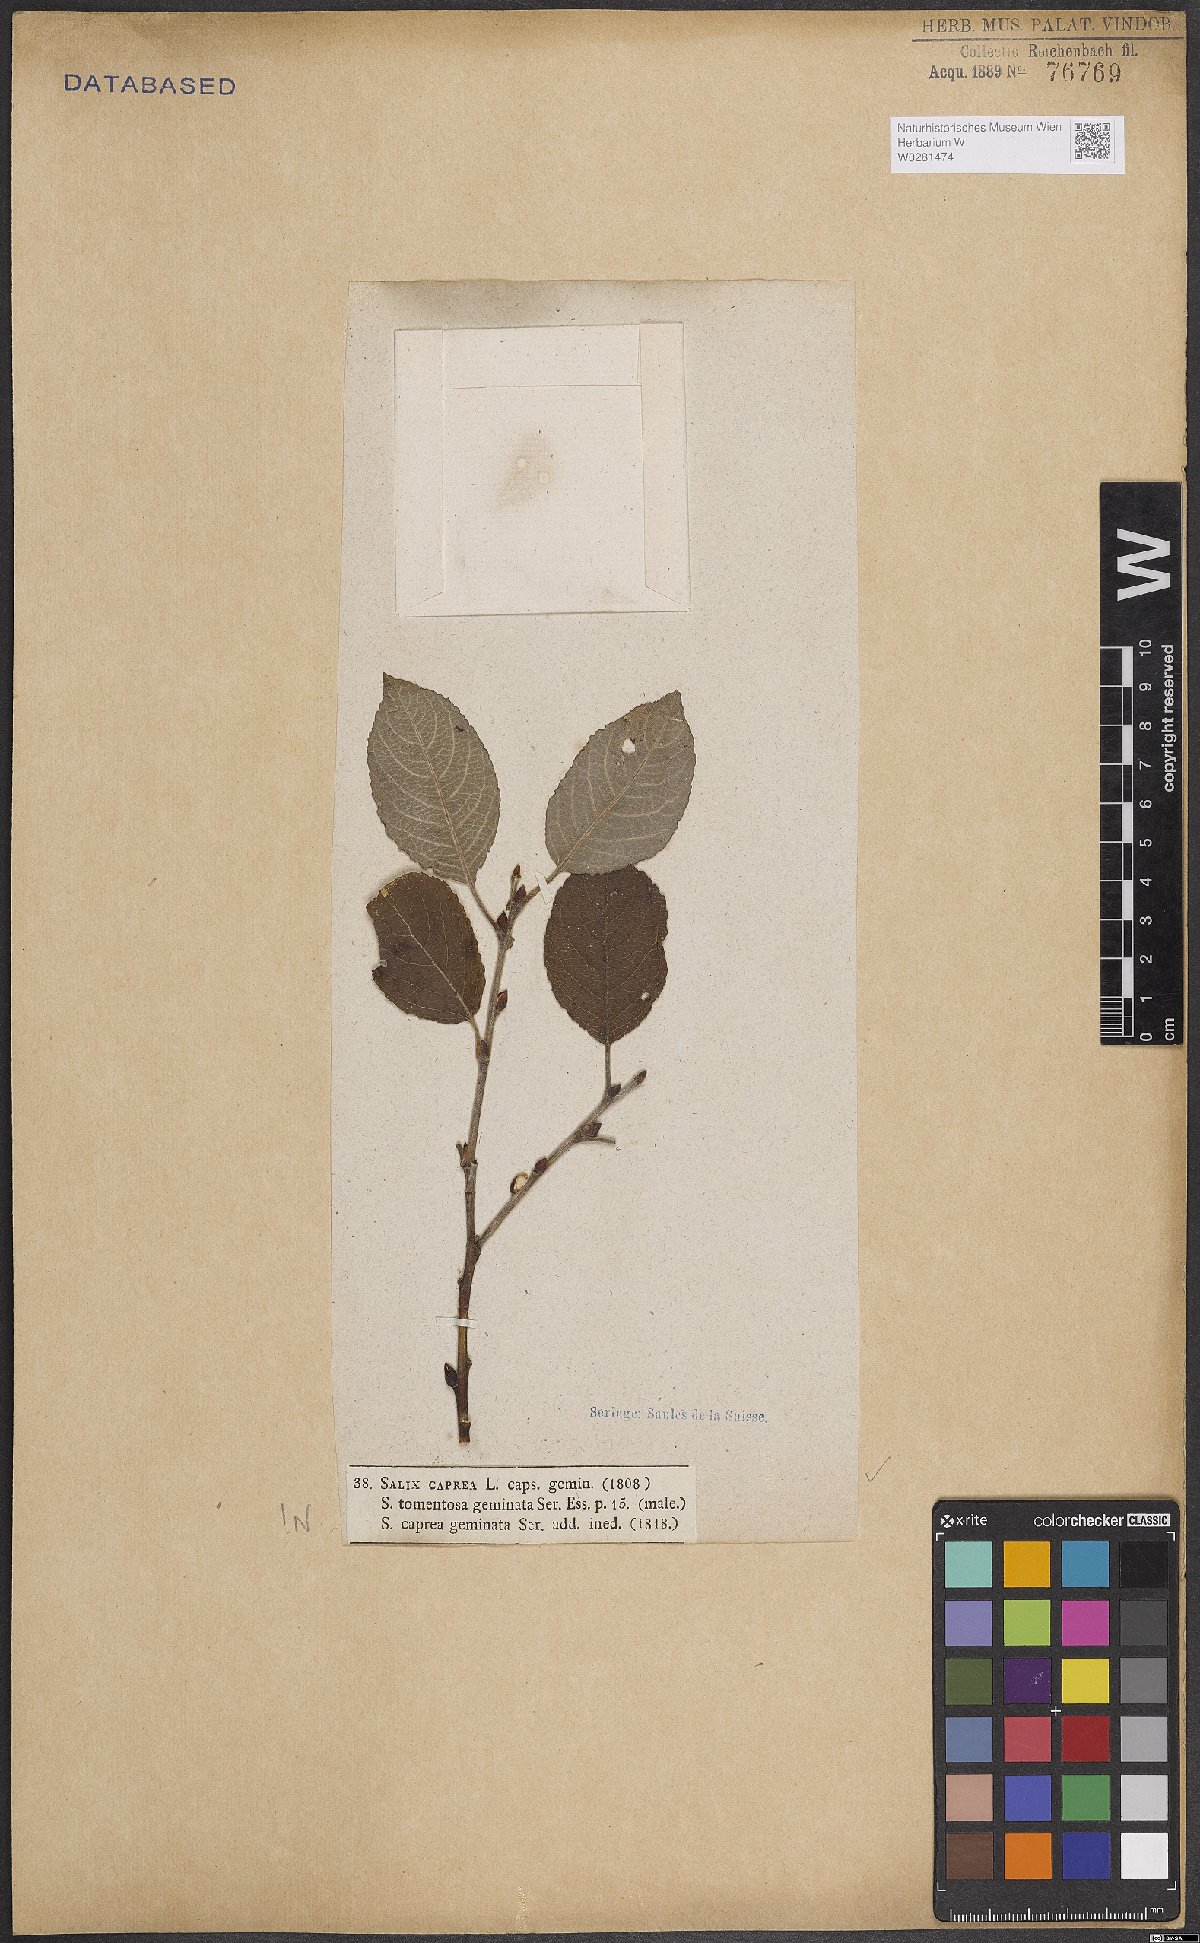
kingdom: Plantae
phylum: Tracheophyta
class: Magnoliopsida
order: Malpighiales
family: Salicaceae
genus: Salix
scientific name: Salix caprea
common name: Goat willow
